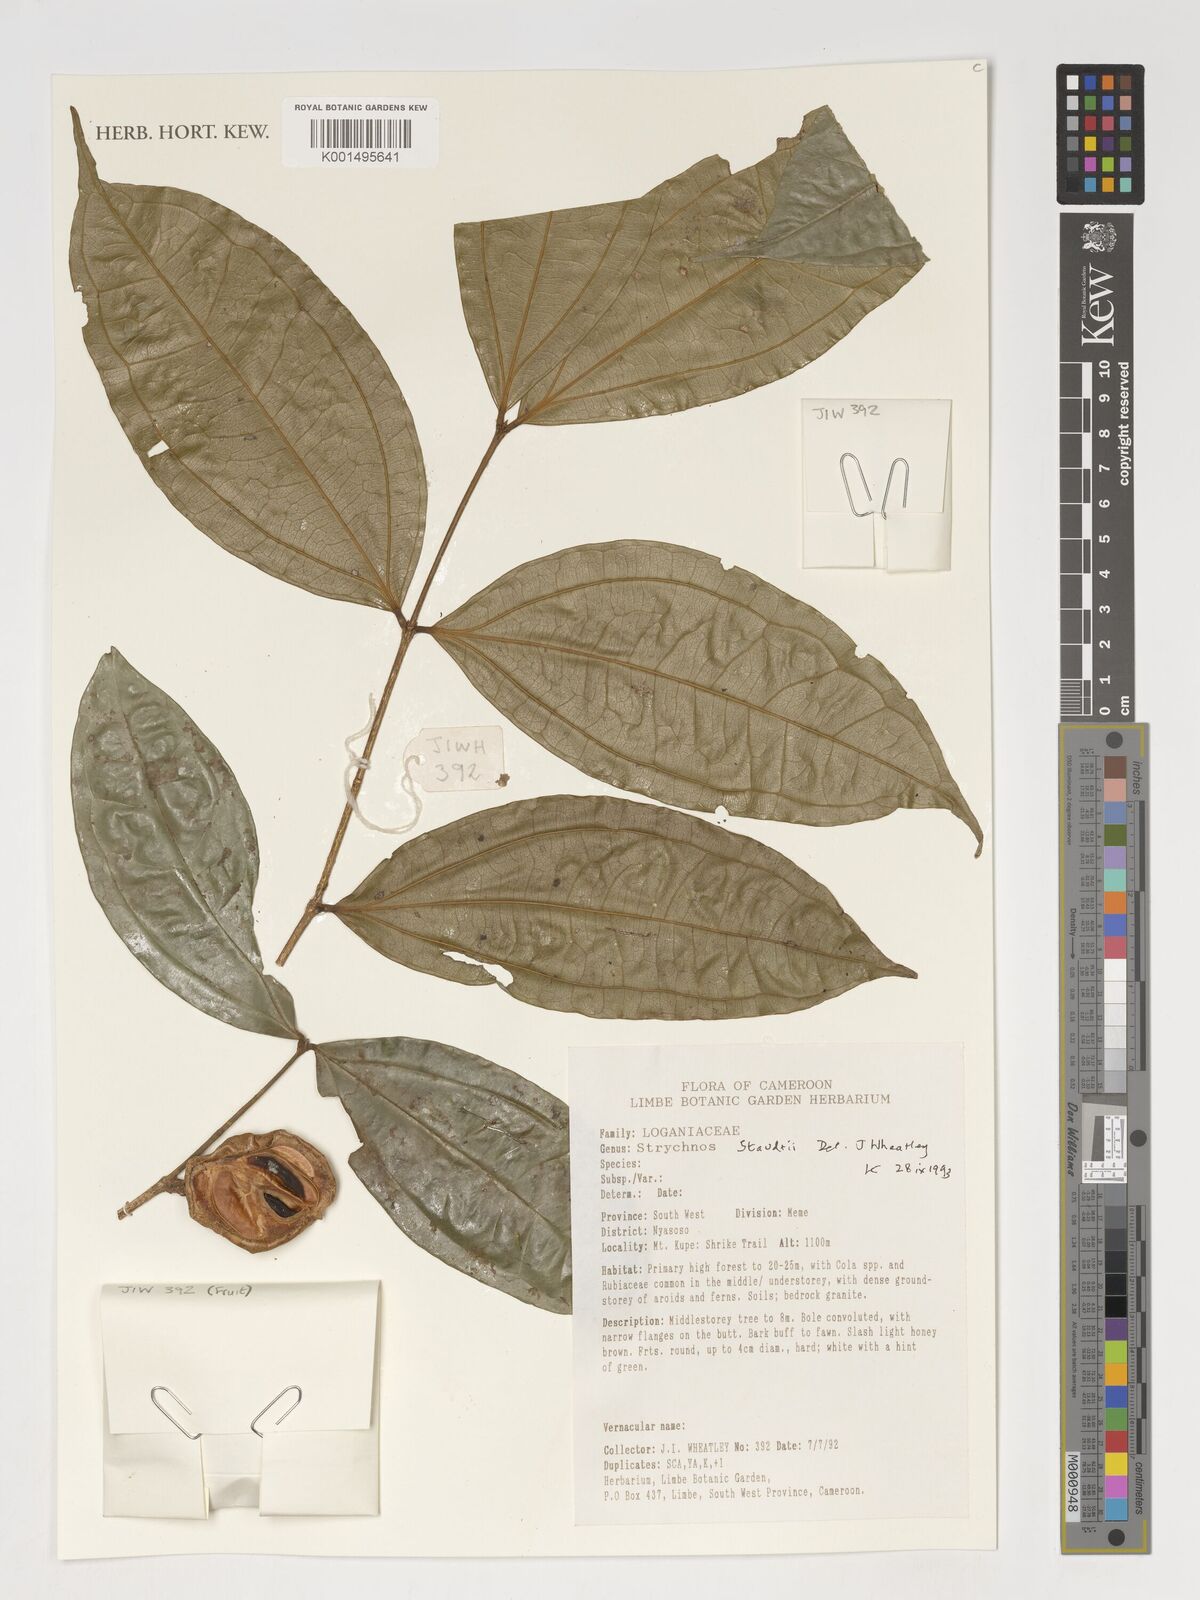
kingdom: Plantae
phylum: Tracheophyta
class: Magnoliopsida
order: Gentianales
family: Loganiaceae
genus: Strychnos
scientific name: Strychnos staudtii
